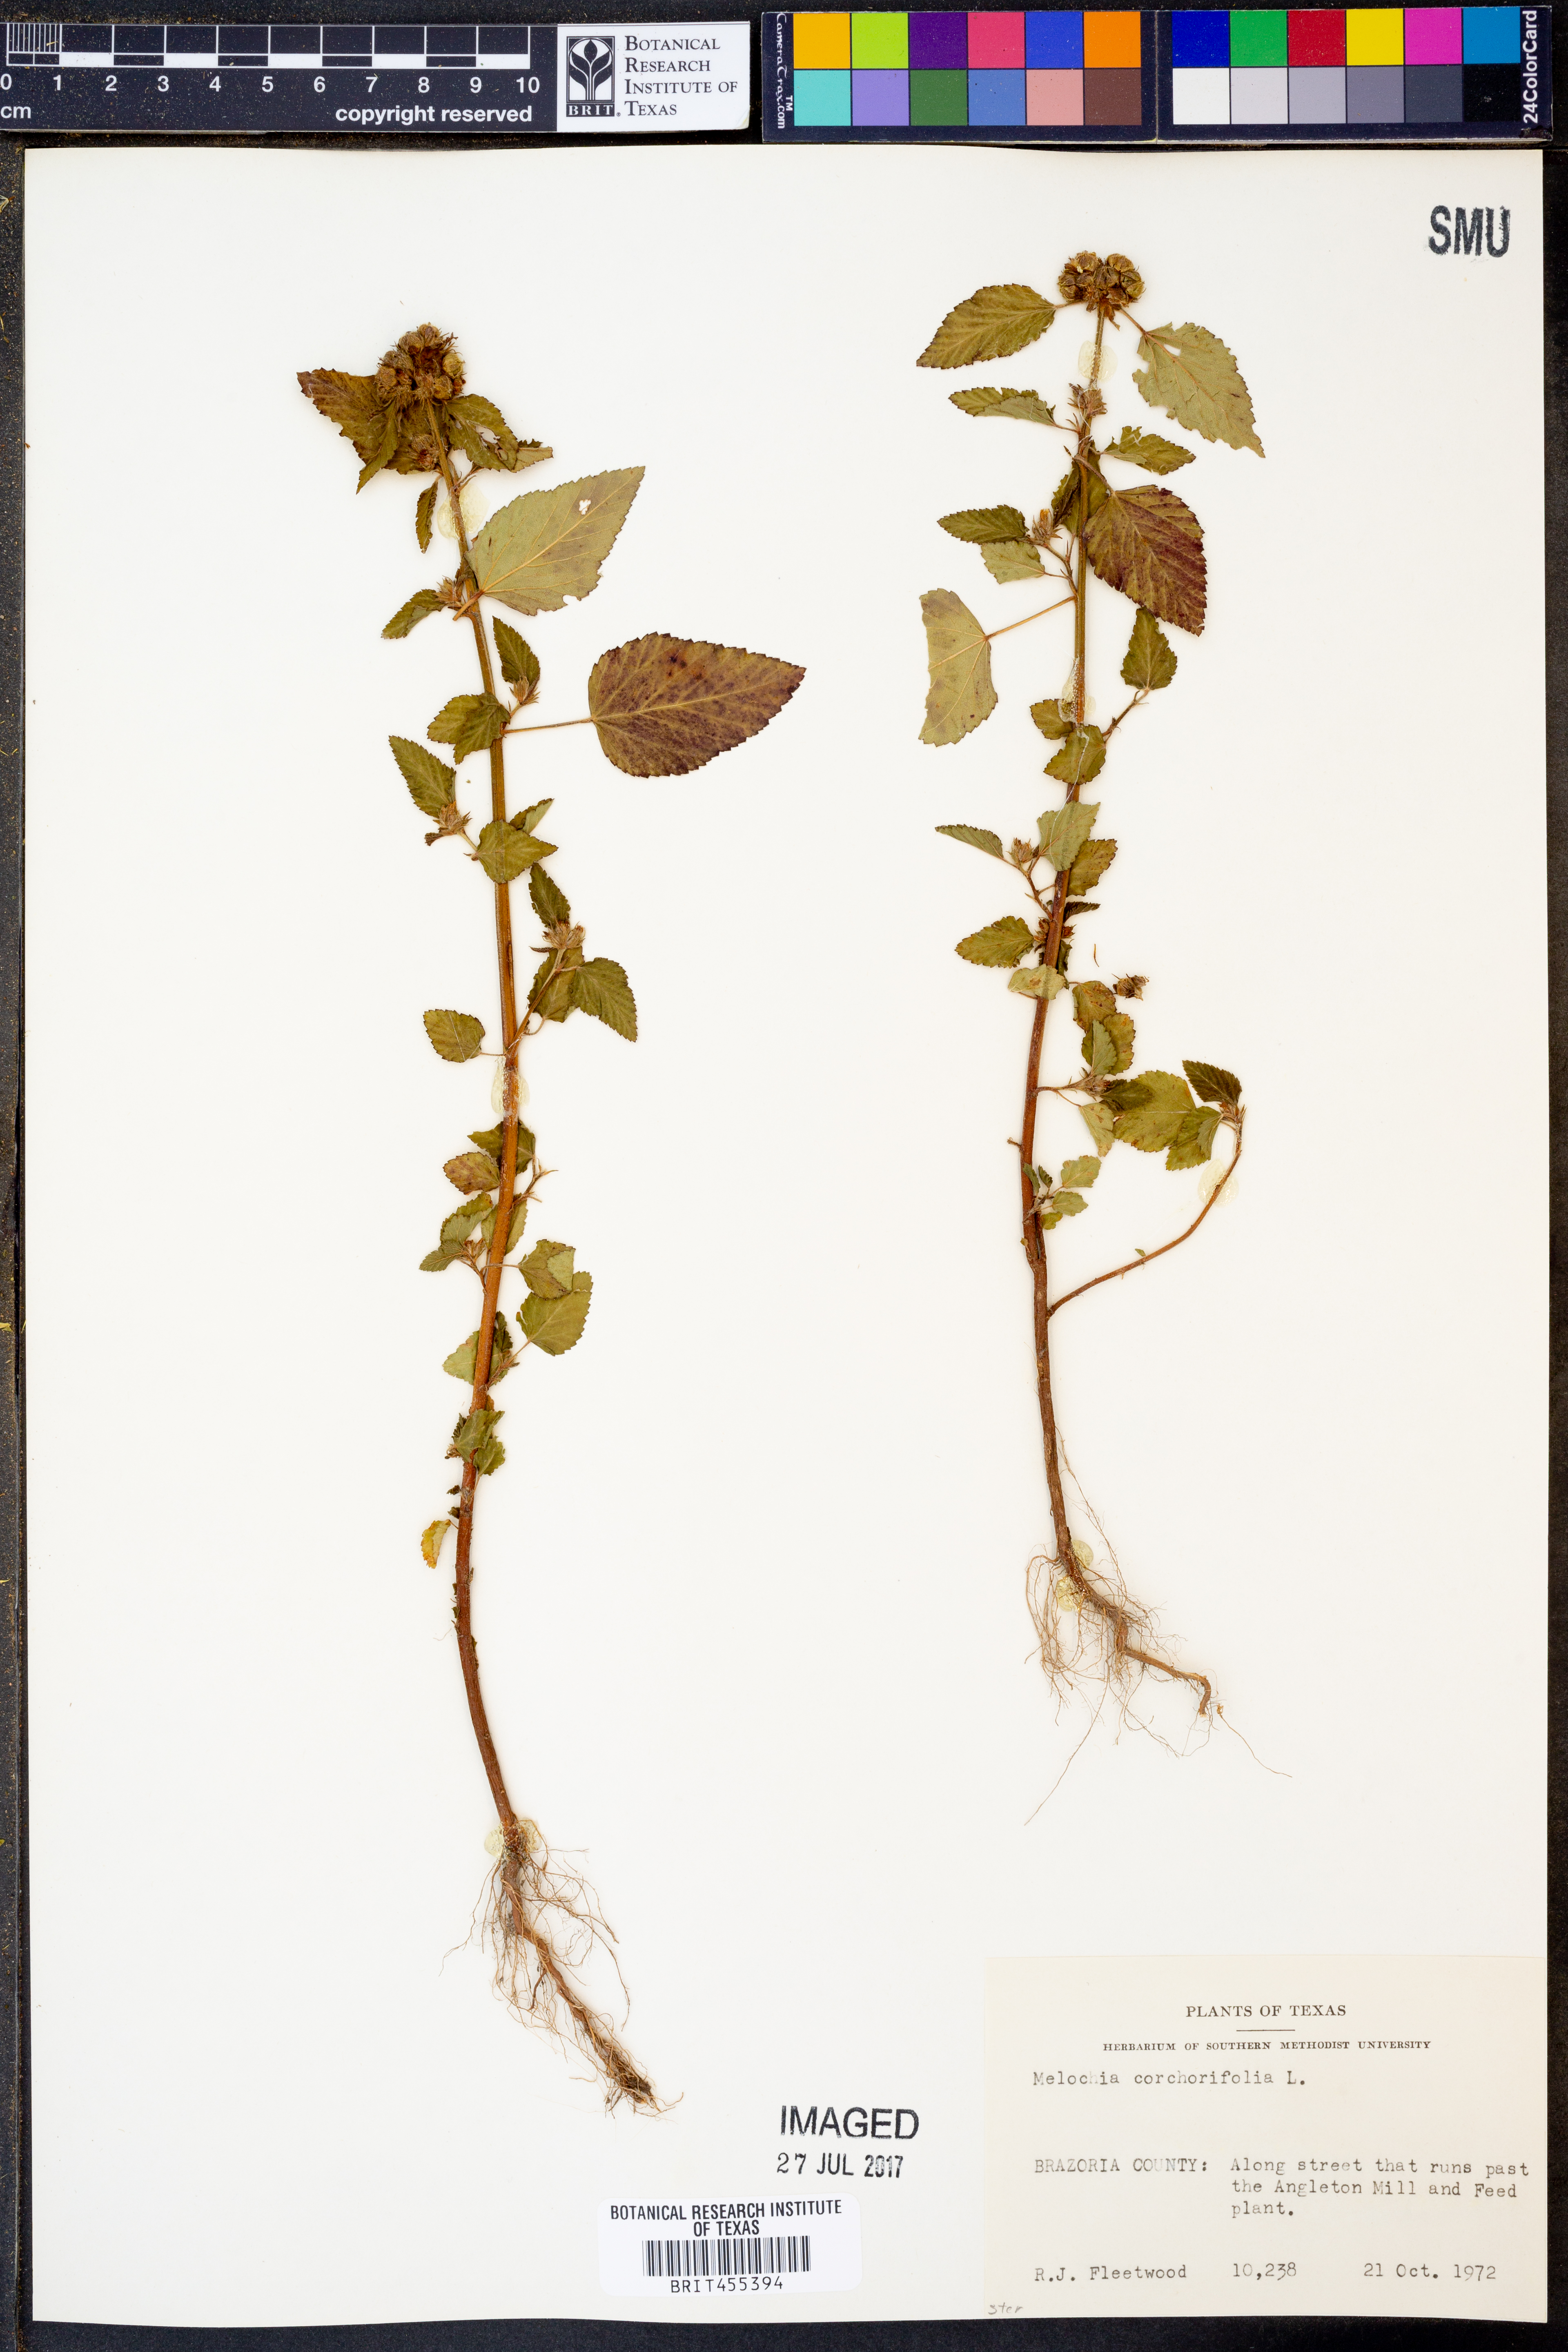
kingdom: Plantae
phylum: Tracheophyta
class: Magnoliopsida
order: Malvales
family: Malvaceae
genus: Melochia
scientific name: Melochia corchorifolia
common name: Chocolateweed
